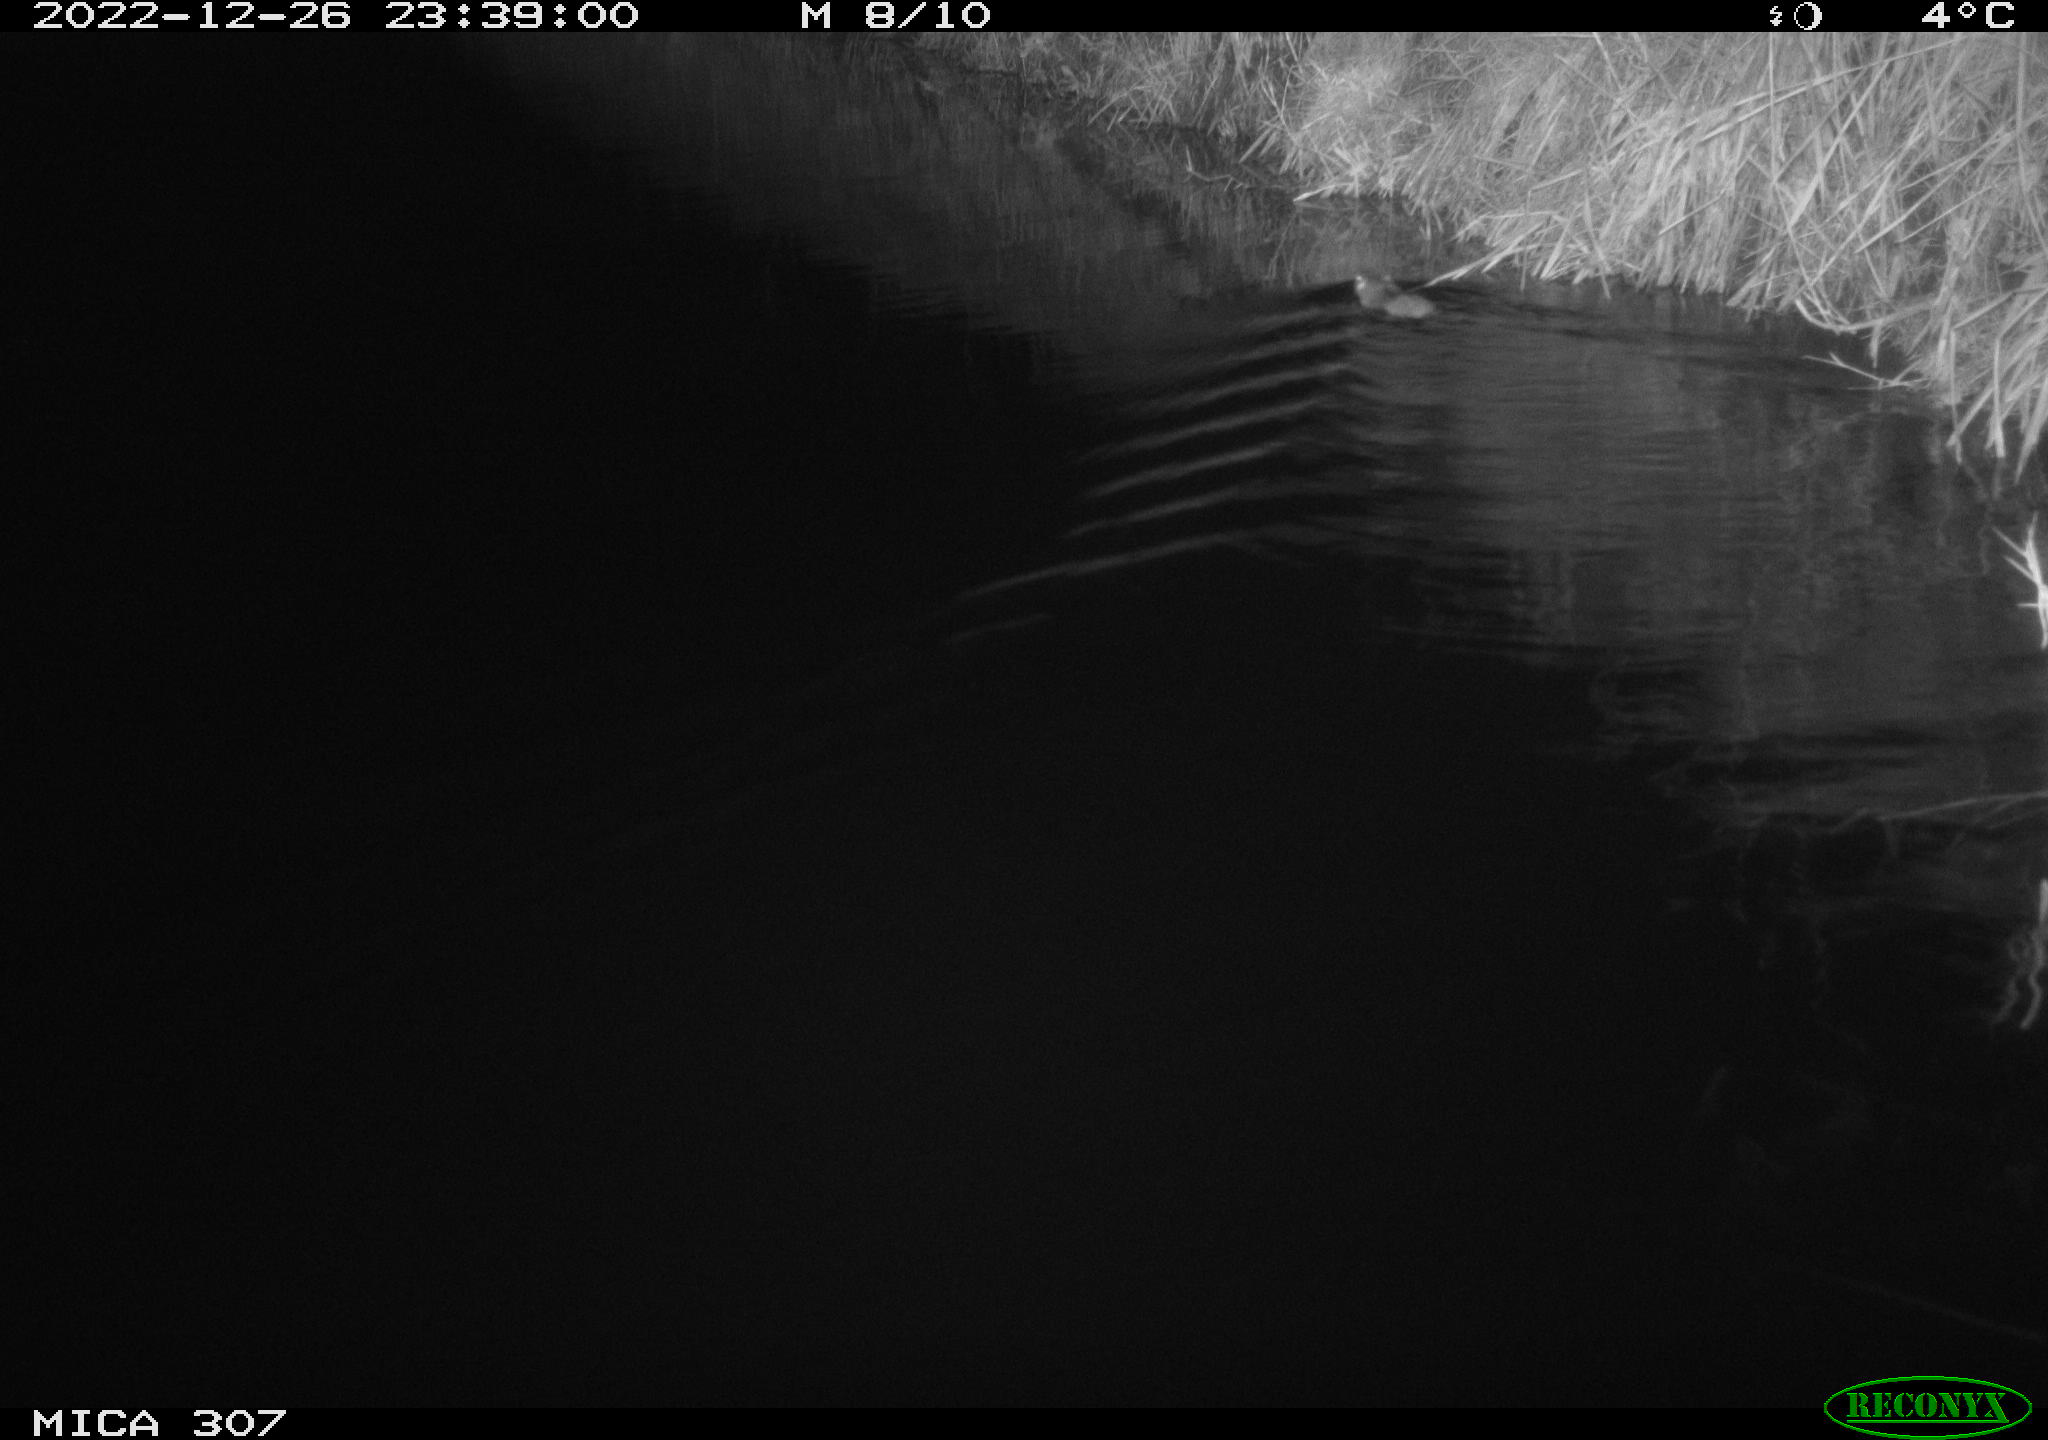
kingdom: Animalia
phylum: Chordata
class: Mammalia
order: Rodentia
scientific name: Rodentia
